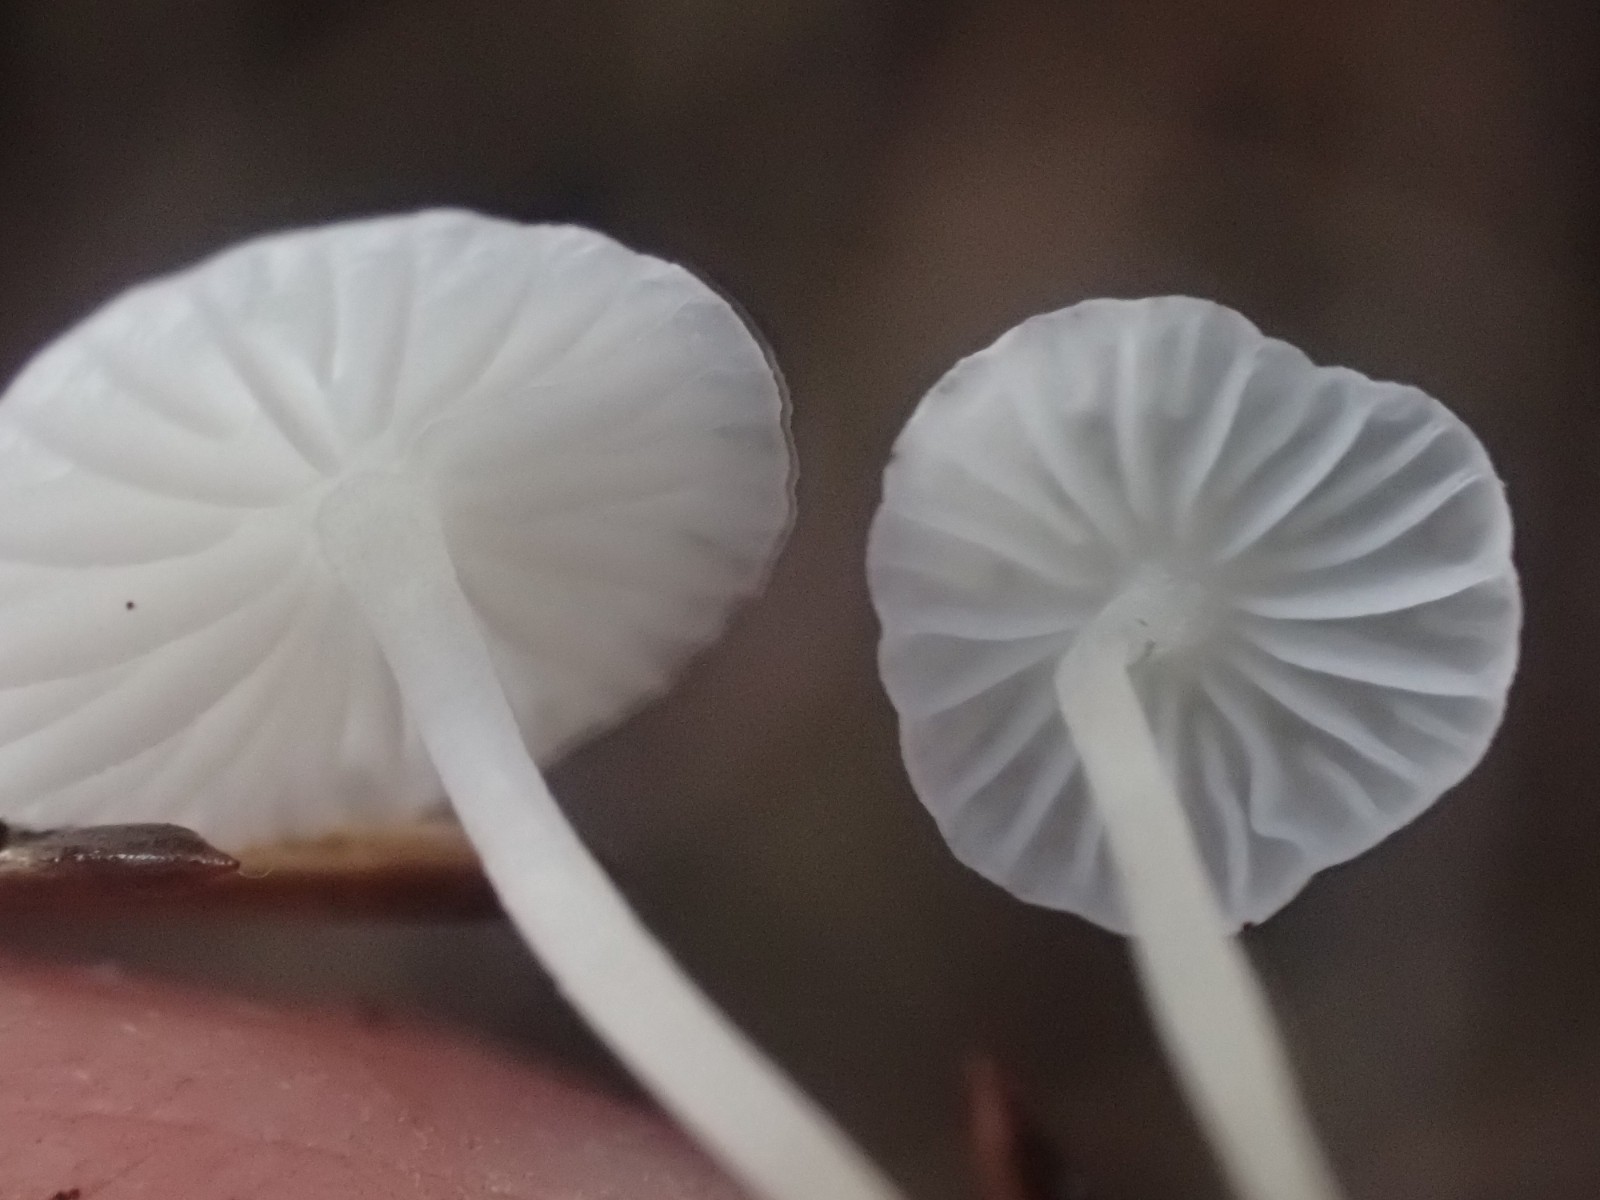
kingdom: Fungi
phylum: Basidiomycota
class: Agaricomycetes
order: Agaricales
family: Mycenaceae
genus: Hemimycena
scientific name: Hemimycena lactea
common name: mælkehvid huesvamp
